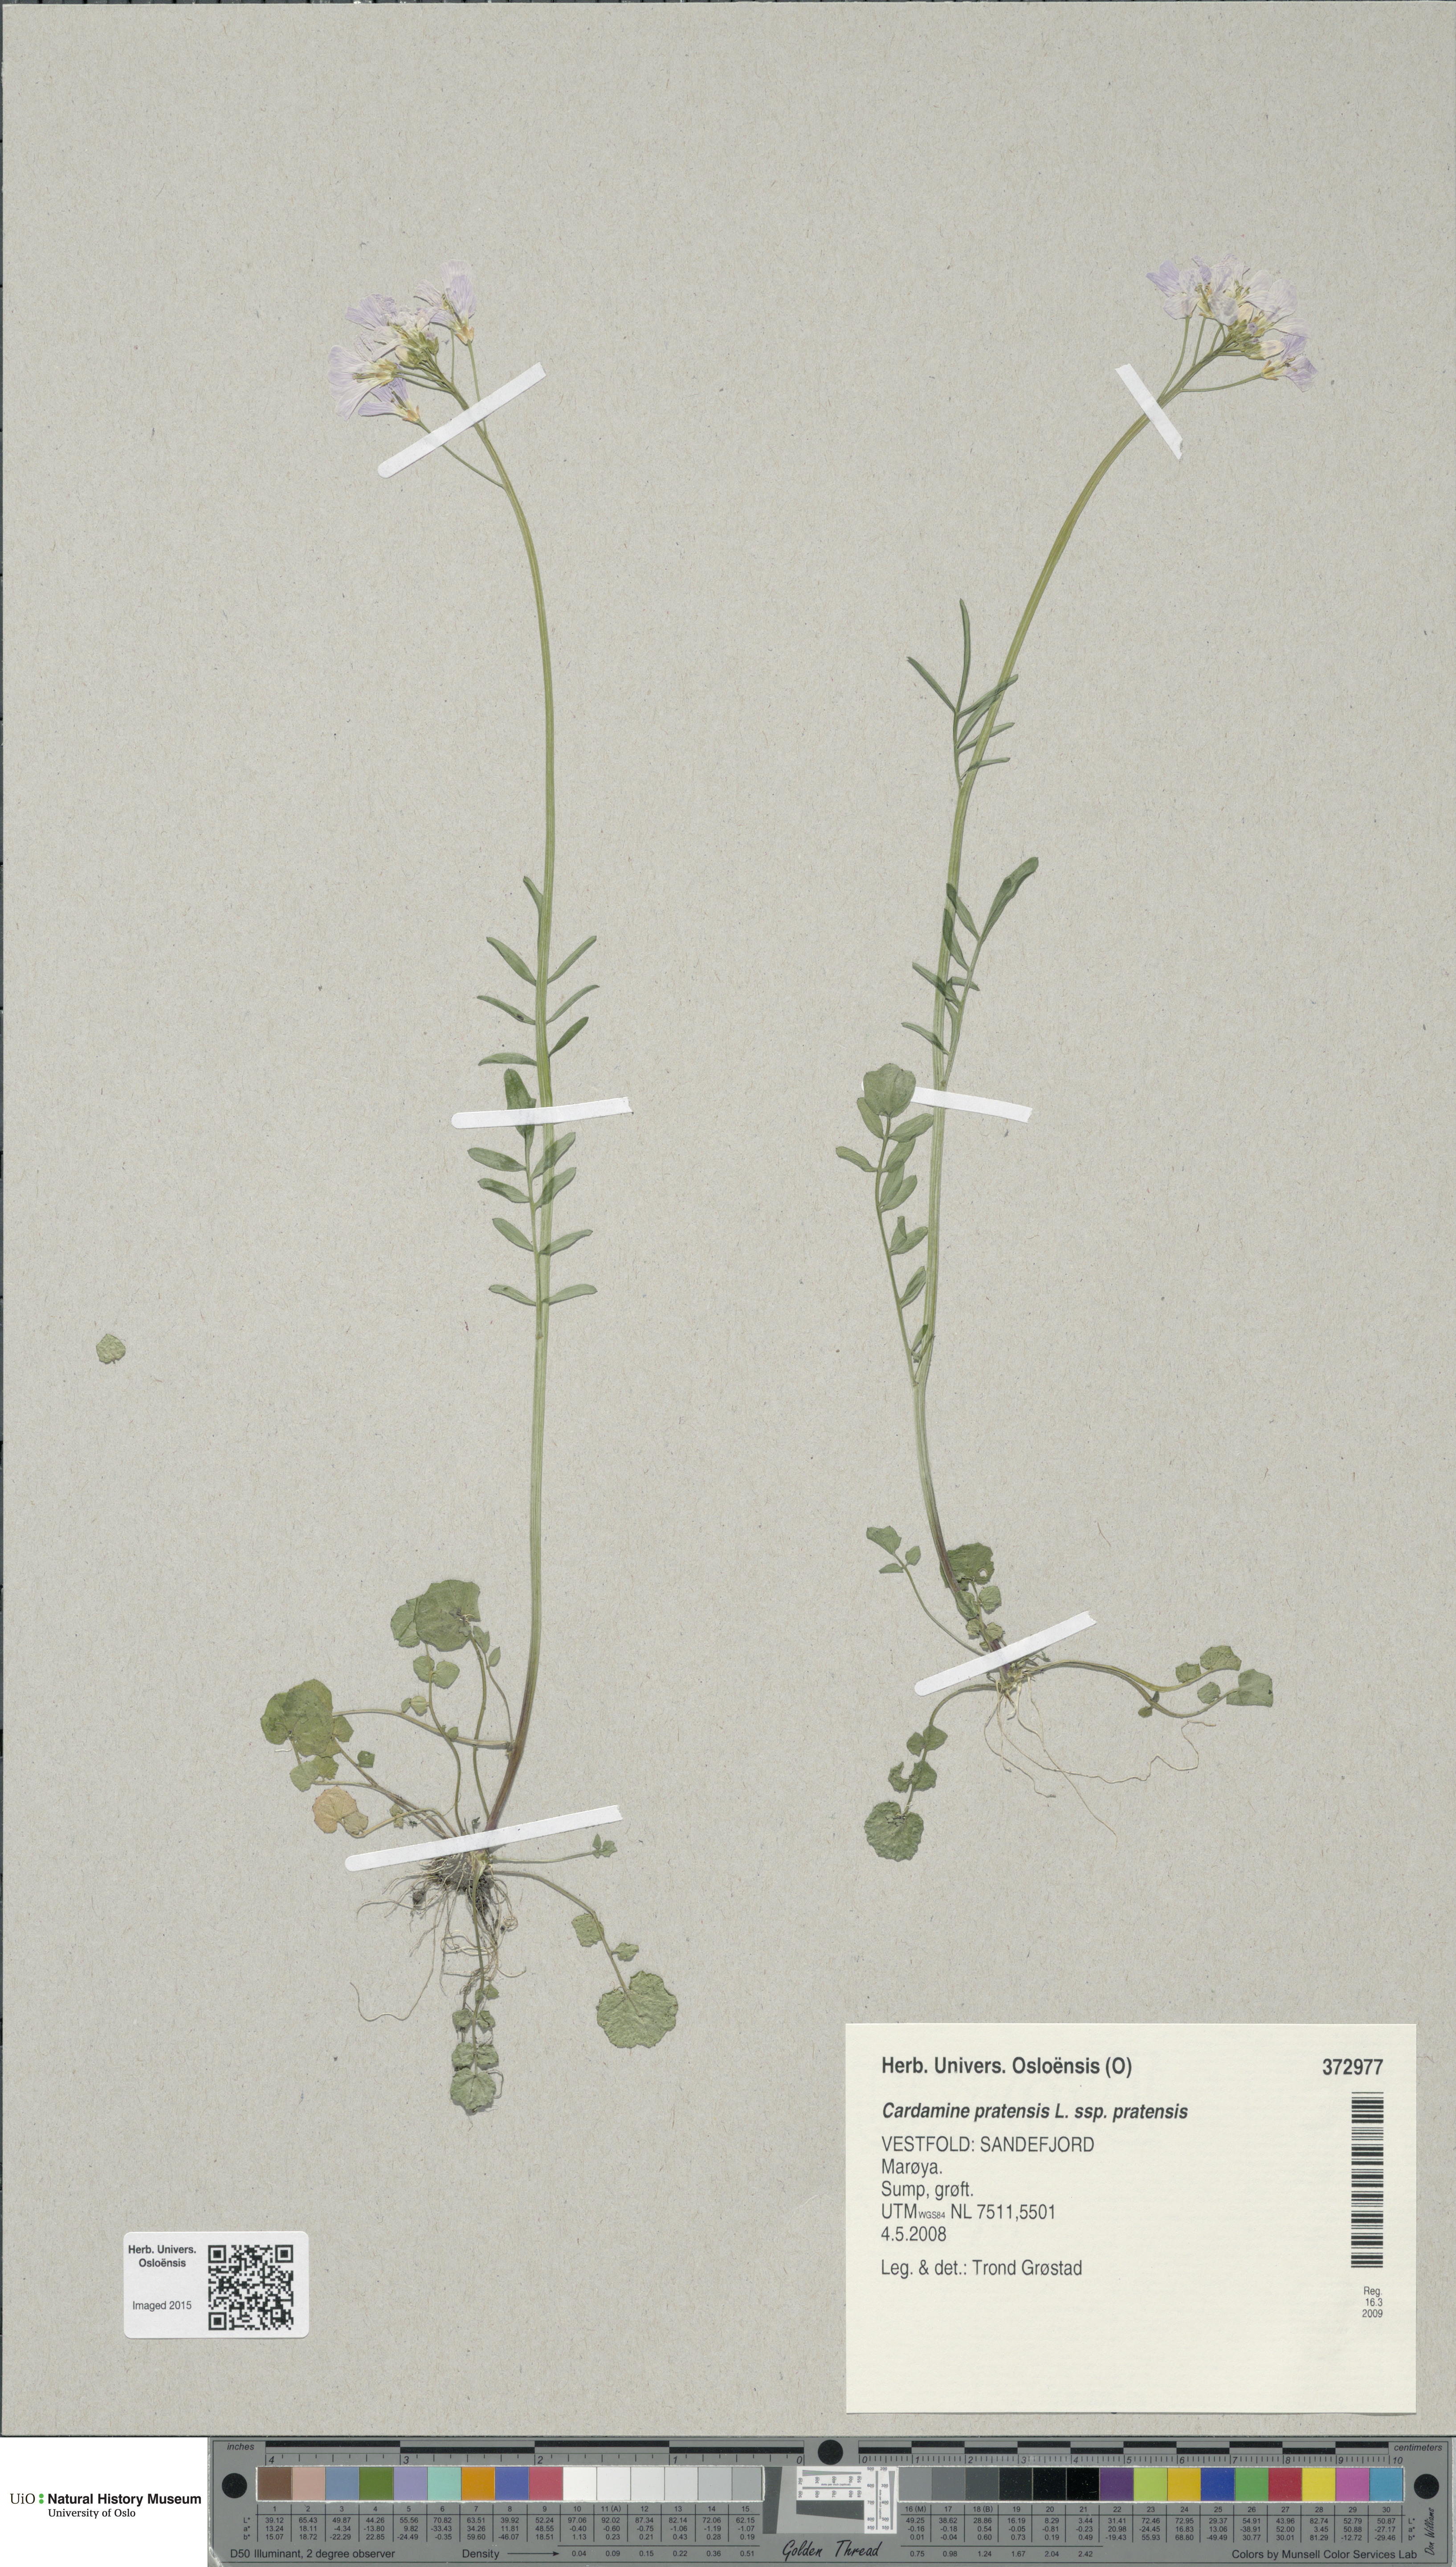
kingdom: Plantae
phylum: Tracheophyta
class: Magnoliopsida
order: Brassicales
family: Brassicaceae
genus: Cardamine
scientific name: Cardamine pratensis
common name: Cuckoo flower
